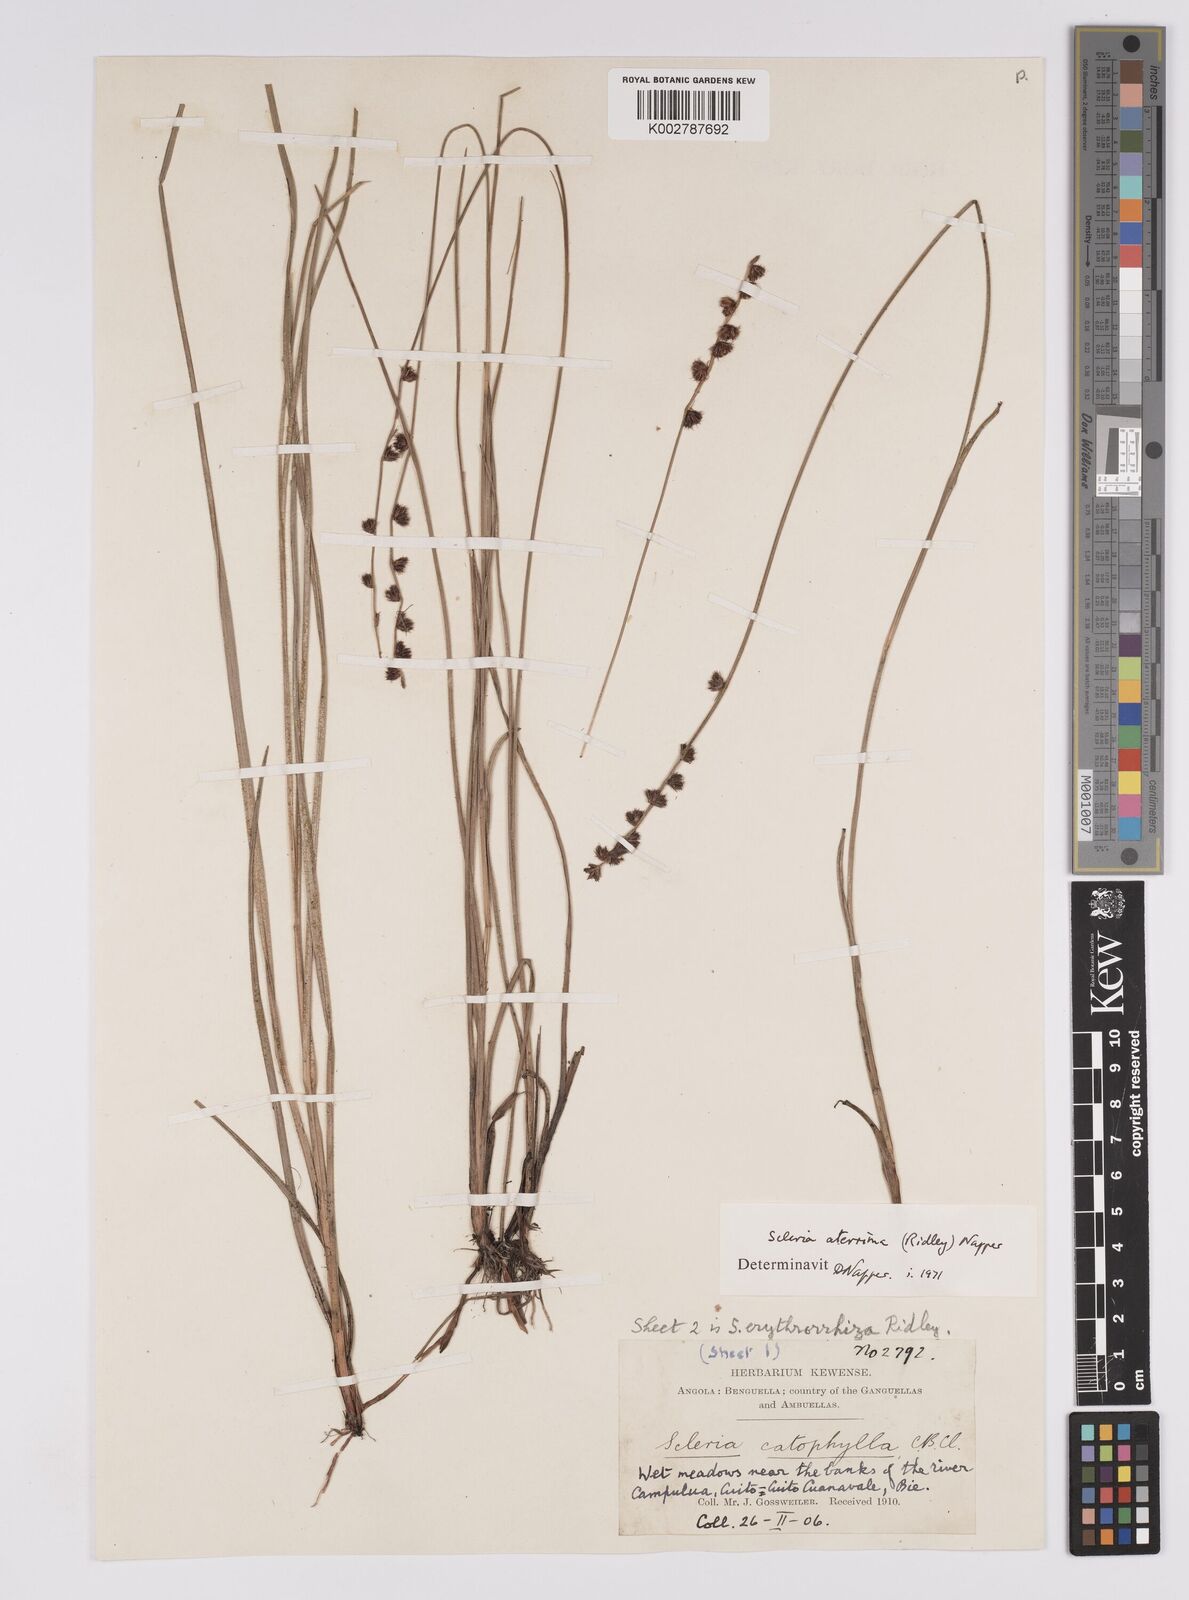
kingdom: Plantae
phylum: Tracheophyta
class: Liliopsida
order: Poales
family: Cyperaceae
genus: Scleria
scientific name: Scleria catophylla
